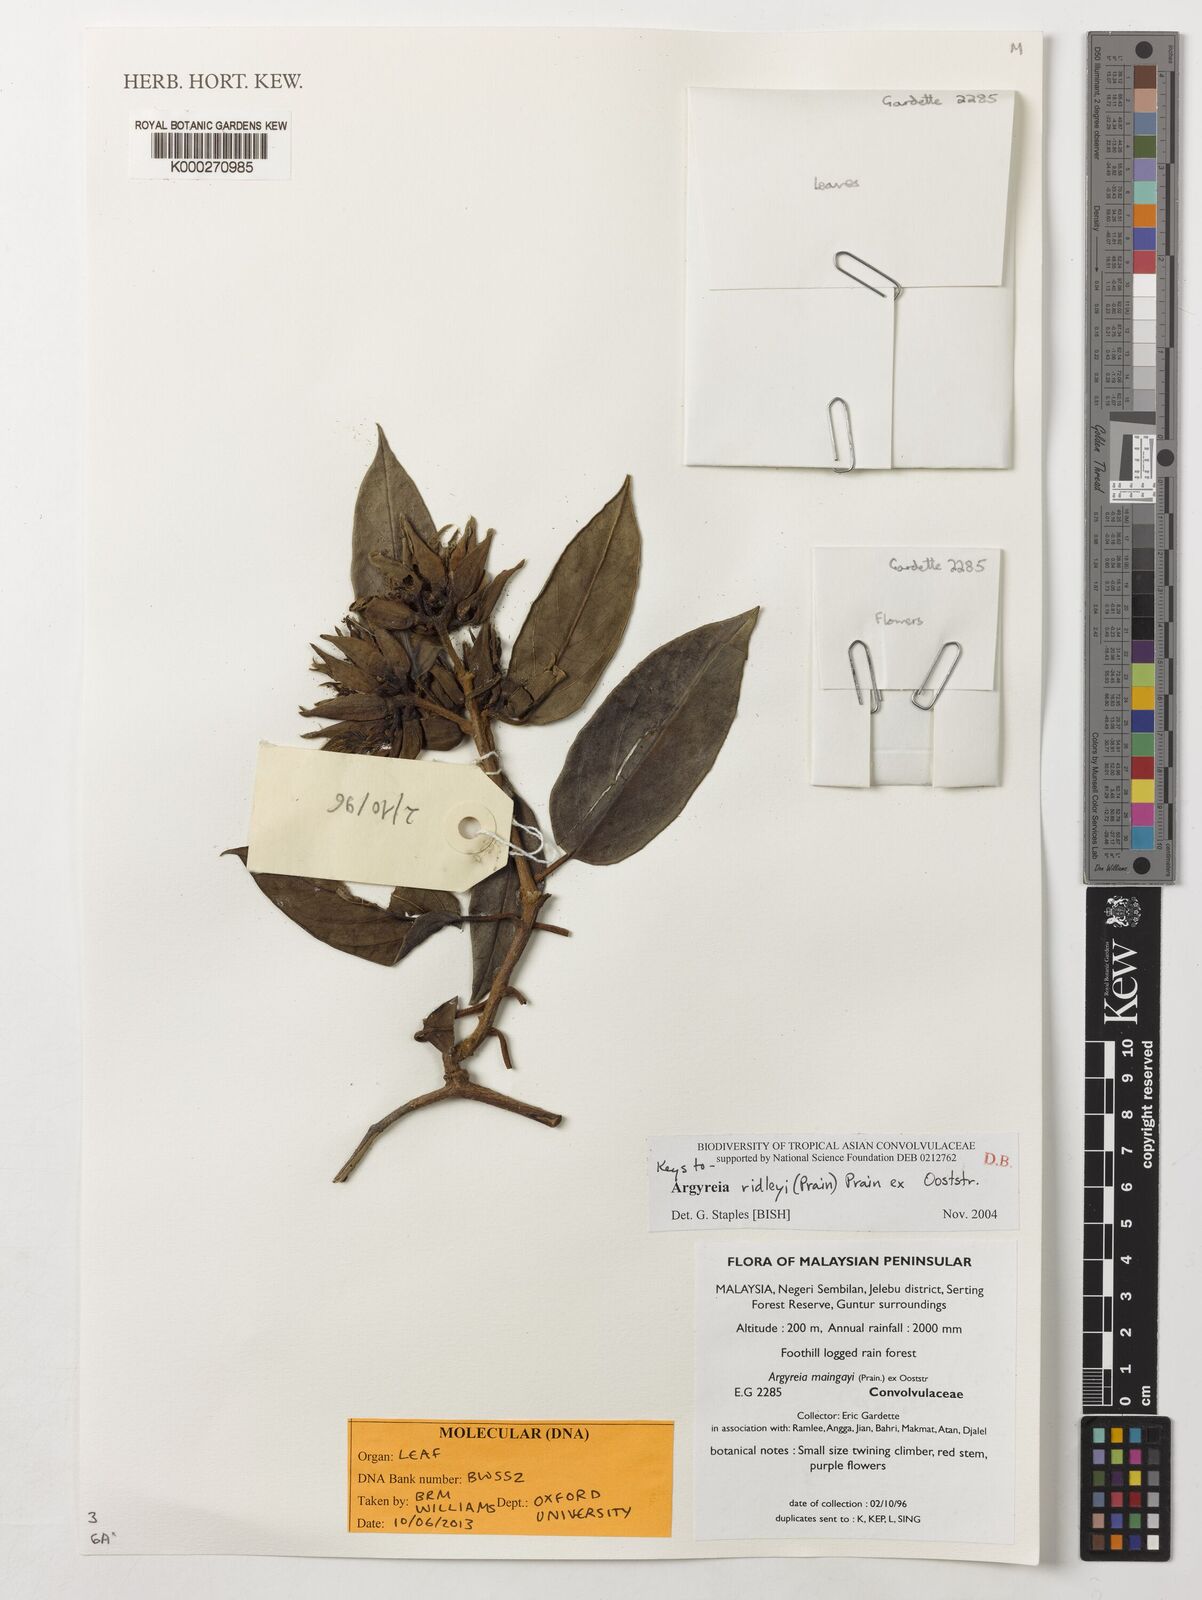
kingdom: Plantae
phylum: Tracheophyta
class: Magnoliopsida
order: Solanales
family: Convolvulaceae
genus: Argyreia
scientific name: Argyreia ridleyi
